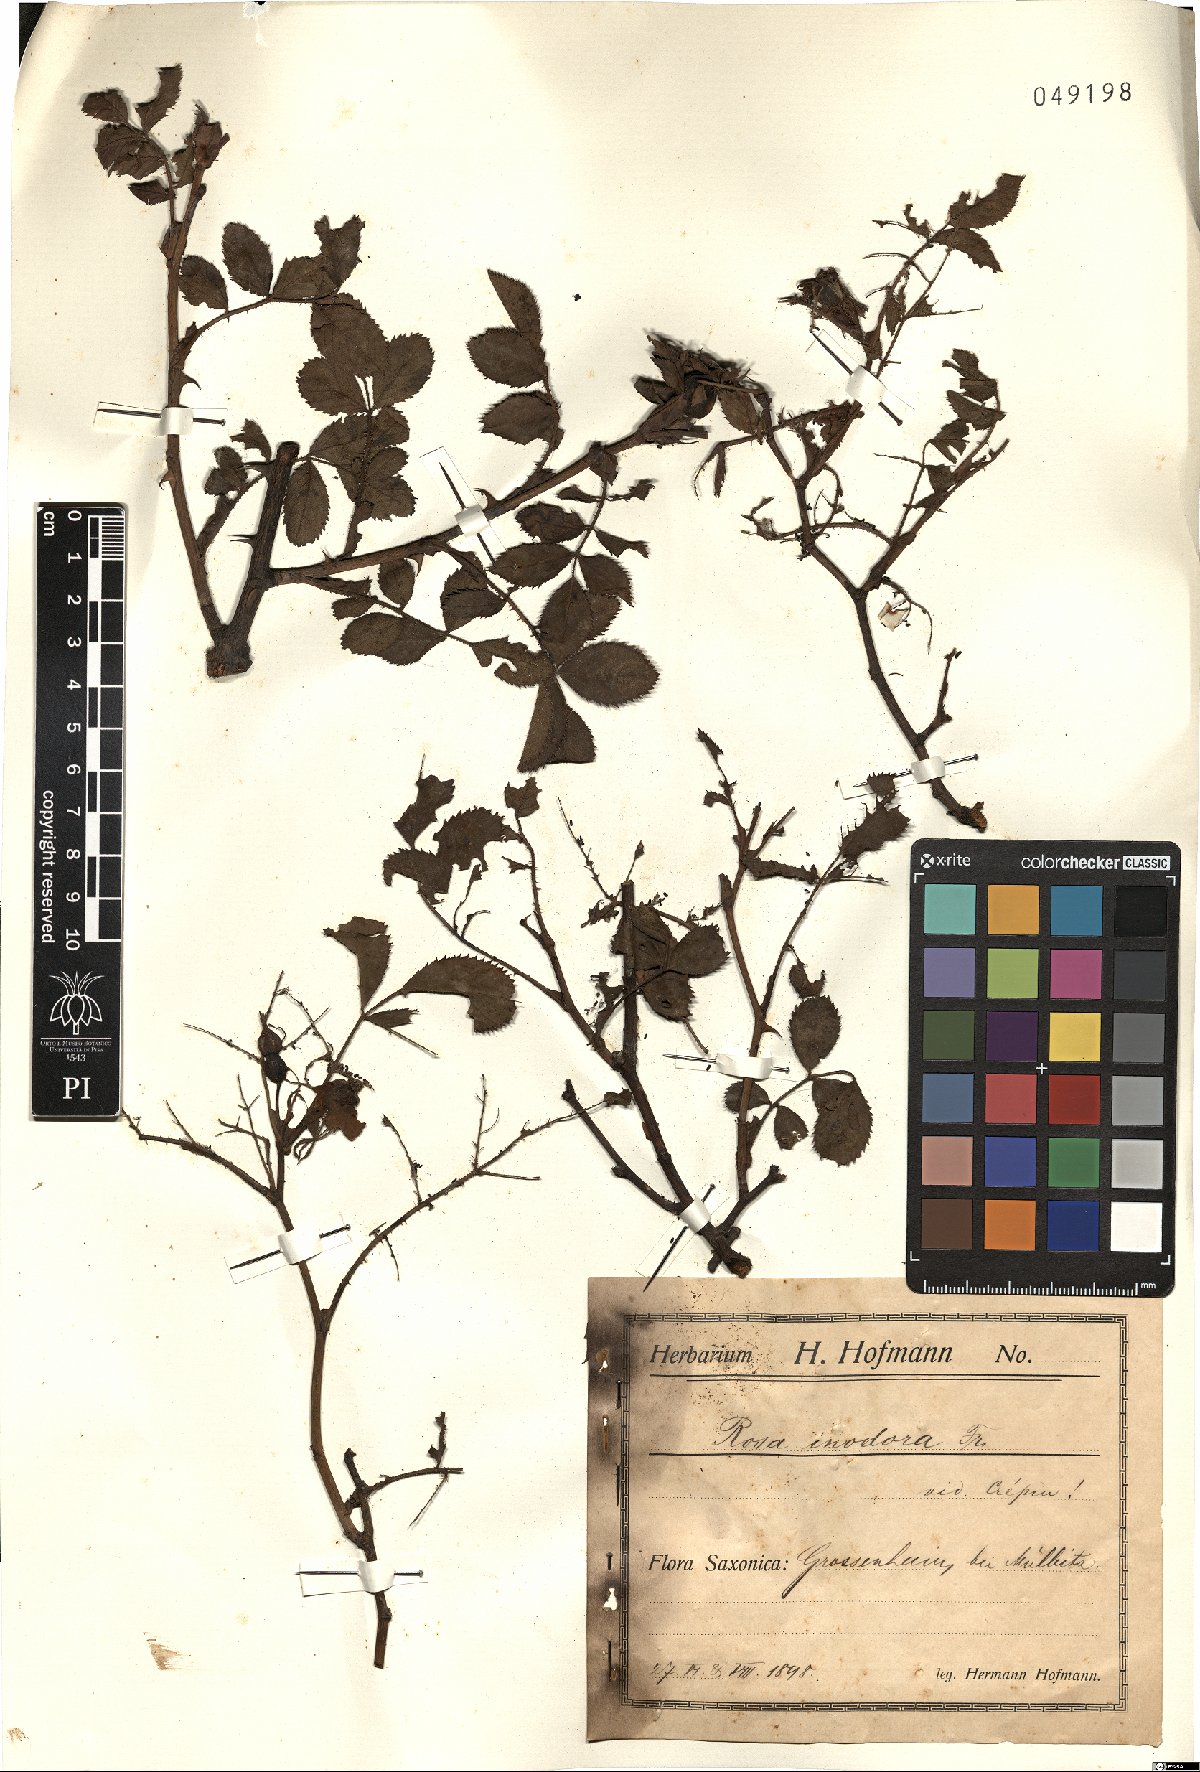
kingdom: Plantae
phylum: Tracheophyta
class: Magnoliopsida
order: Rosales
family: Rosaceae
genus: Rosa
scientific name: Rosa inodora
